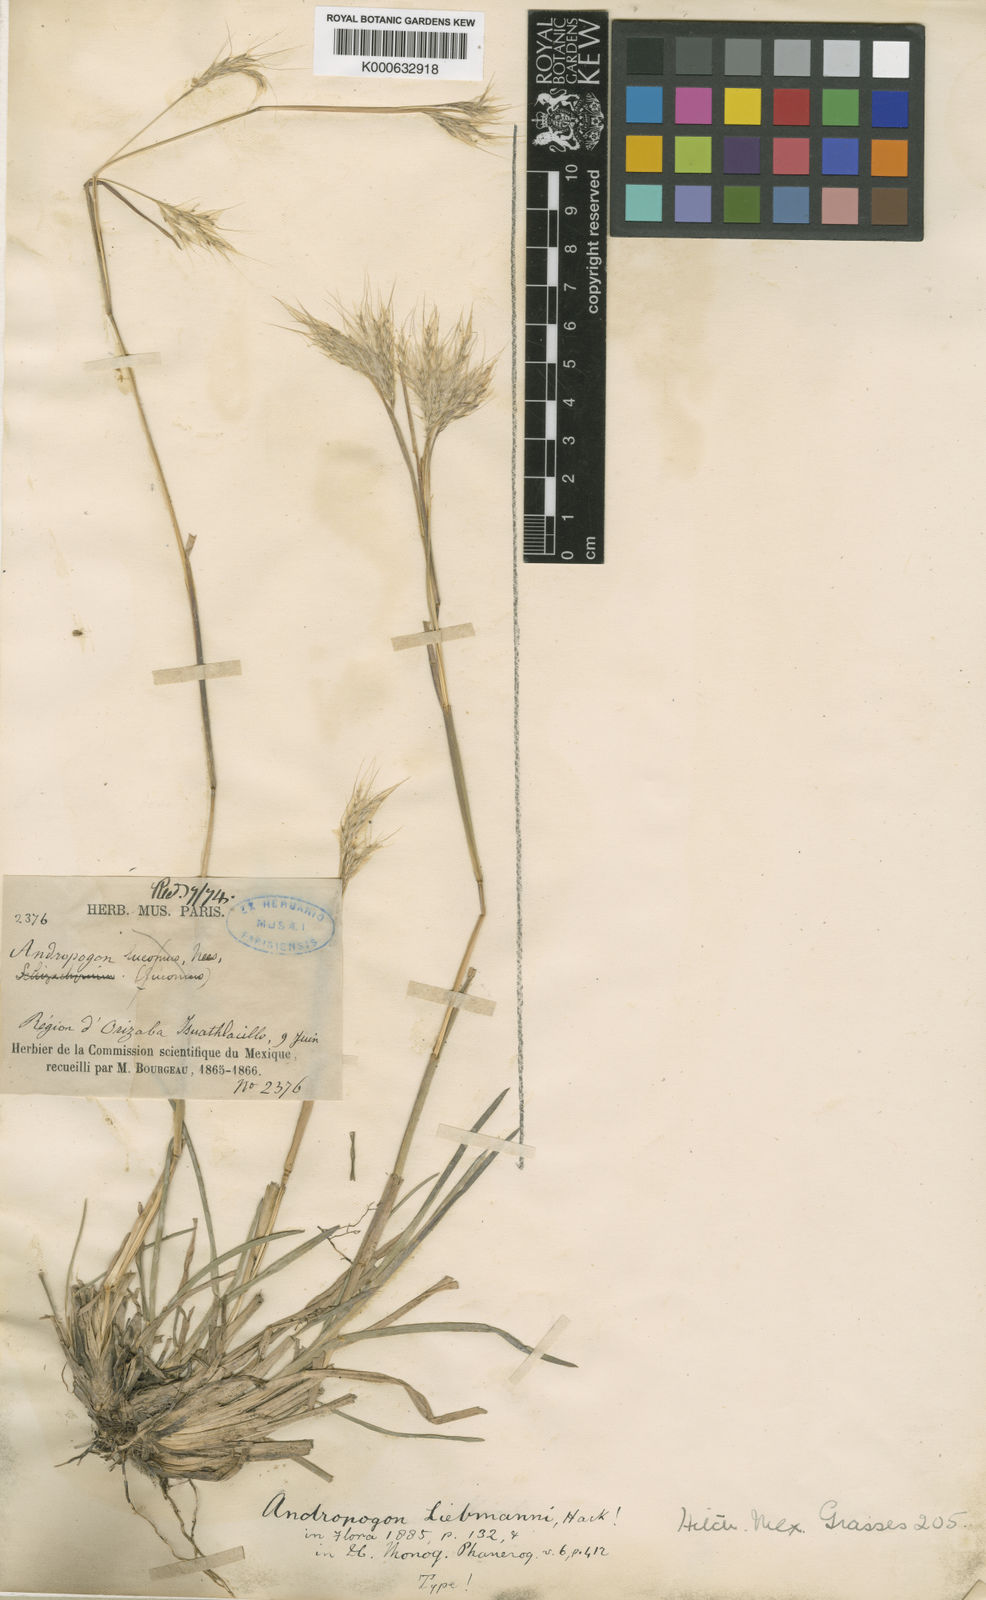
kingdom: Plantae
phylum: Tracheophyta
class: Liliopsida
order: Poales
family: Poaceae
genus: Andropogon
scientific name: Andropogon liebmannii
